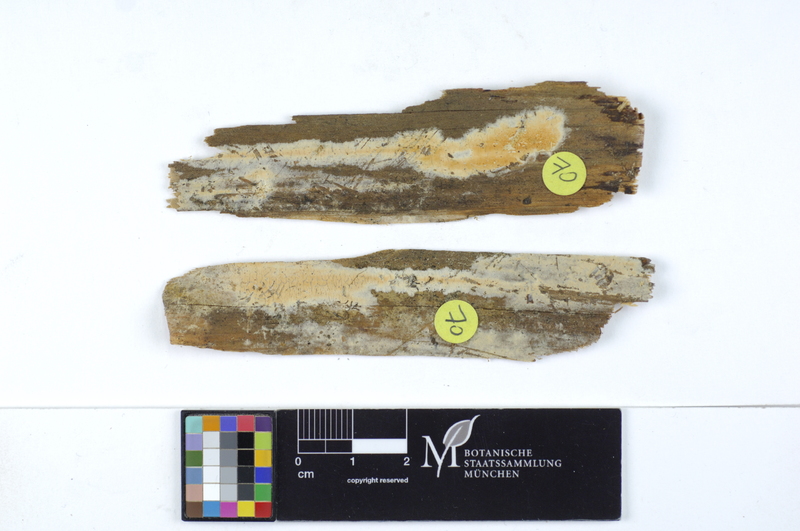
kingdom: Plantae
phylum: Tracheophyta
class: Magnoliopsida
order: Fagales
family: Fagaceae
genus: Fagus
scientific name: Fagus sylvatica
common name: Beech
